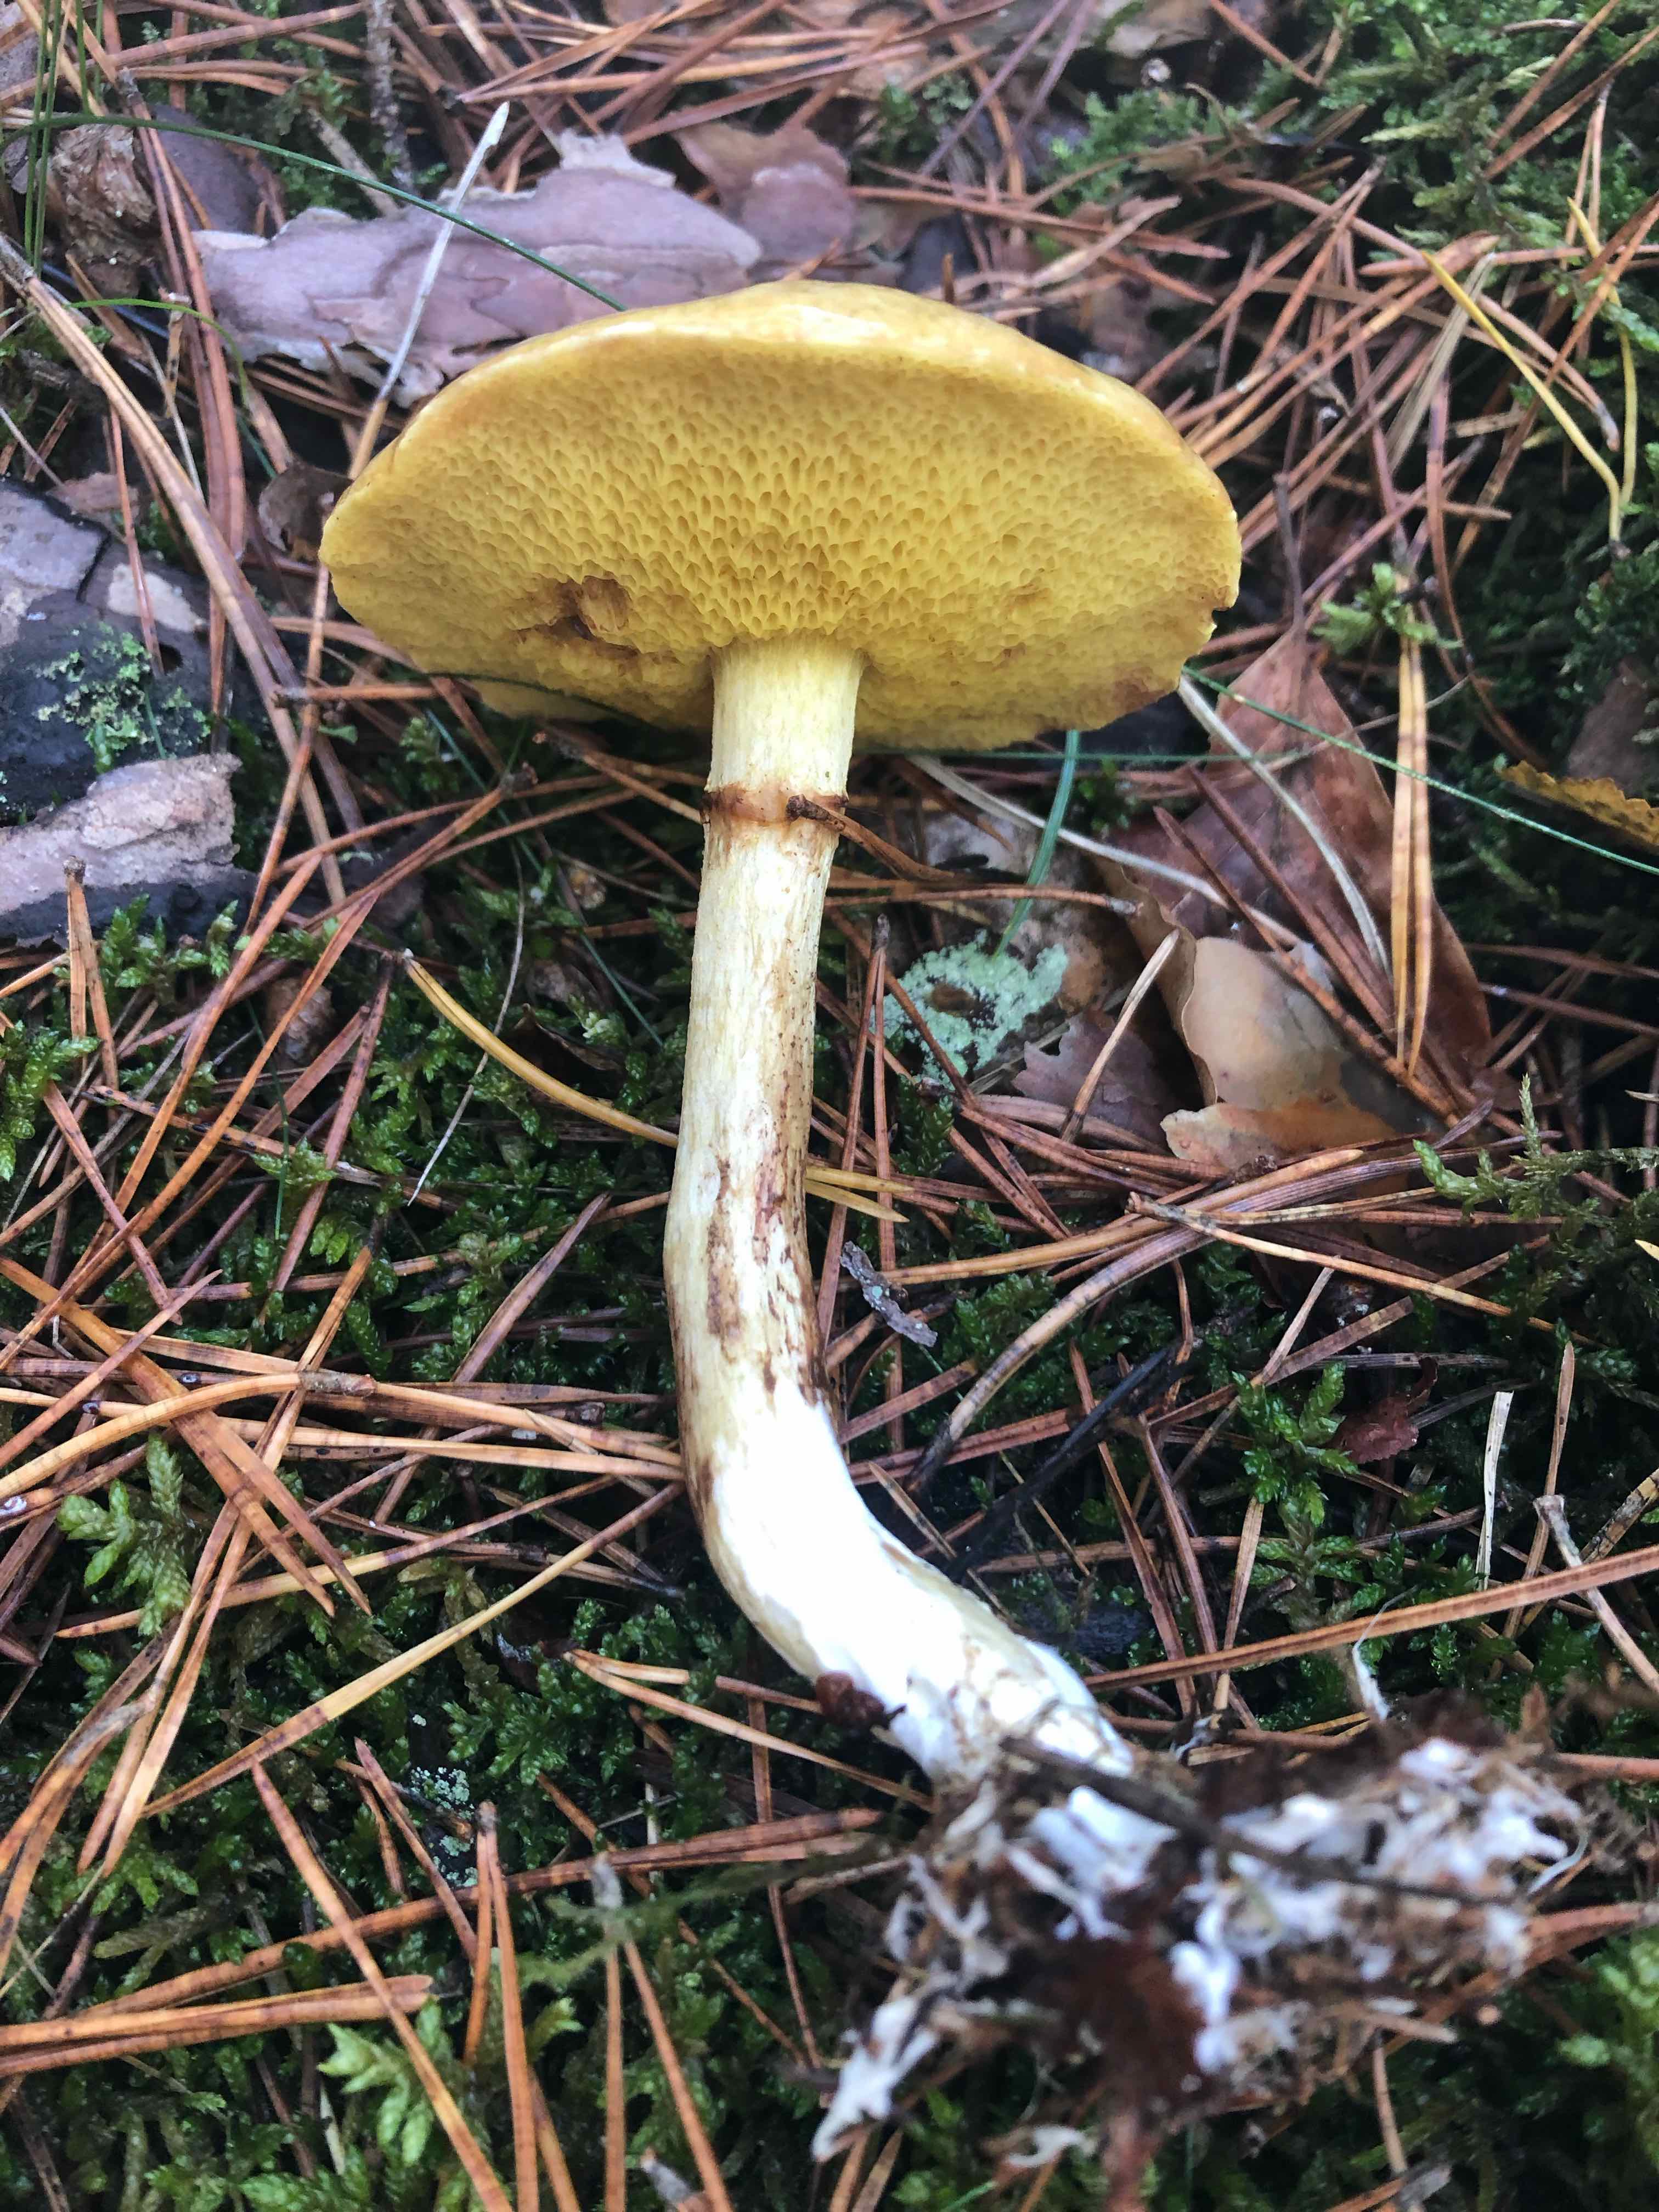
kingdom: Fungi
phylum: Basidiomycota
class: Agaricomycetes
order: Boletales
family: Suillaceae
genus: Suillus
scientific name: Suillus flavidus
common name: mose-slimrørhat
